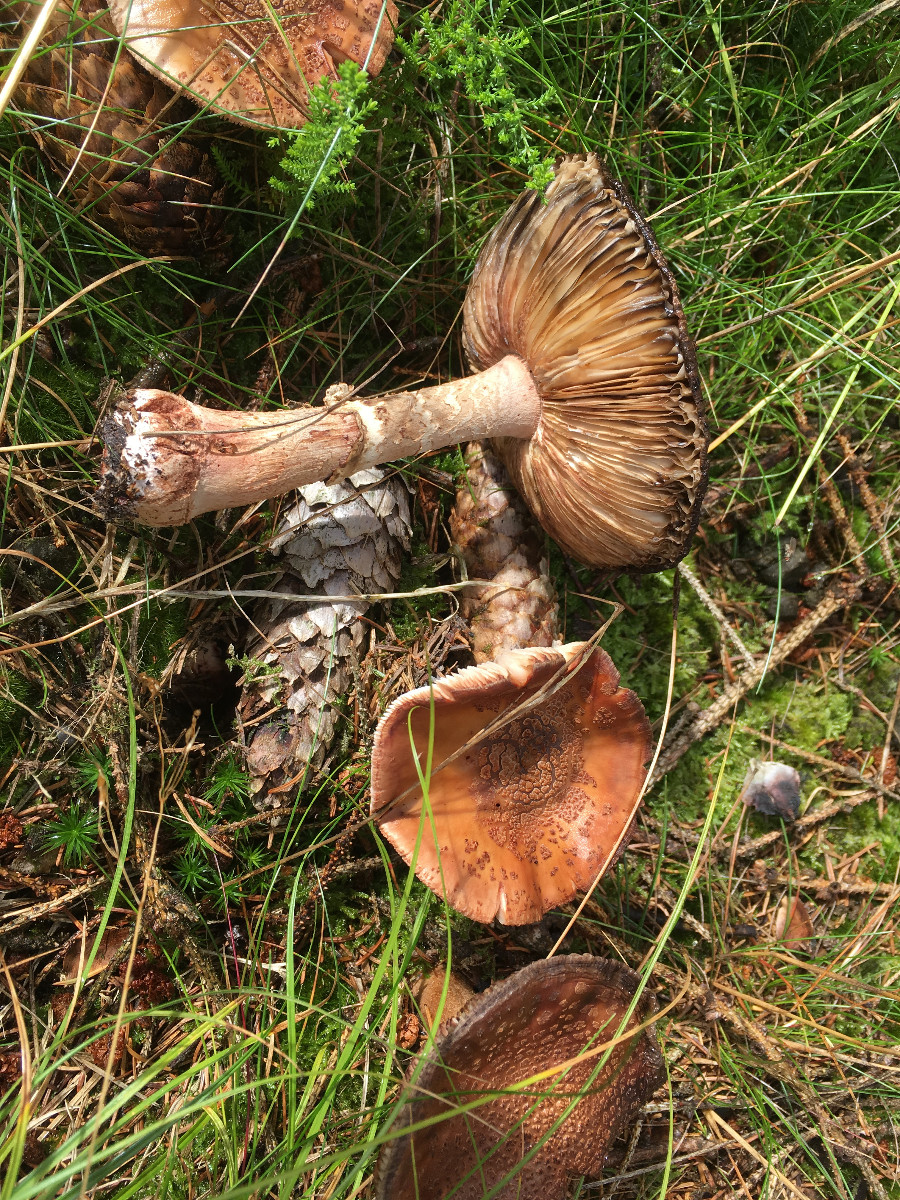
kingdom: Fungi
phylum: Basidiomycota
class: Agaricomycetes
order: Agaricales
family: Amanitaceae
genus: Amanita
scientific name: Amanita rubescens
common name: rødmende fluesvamp
